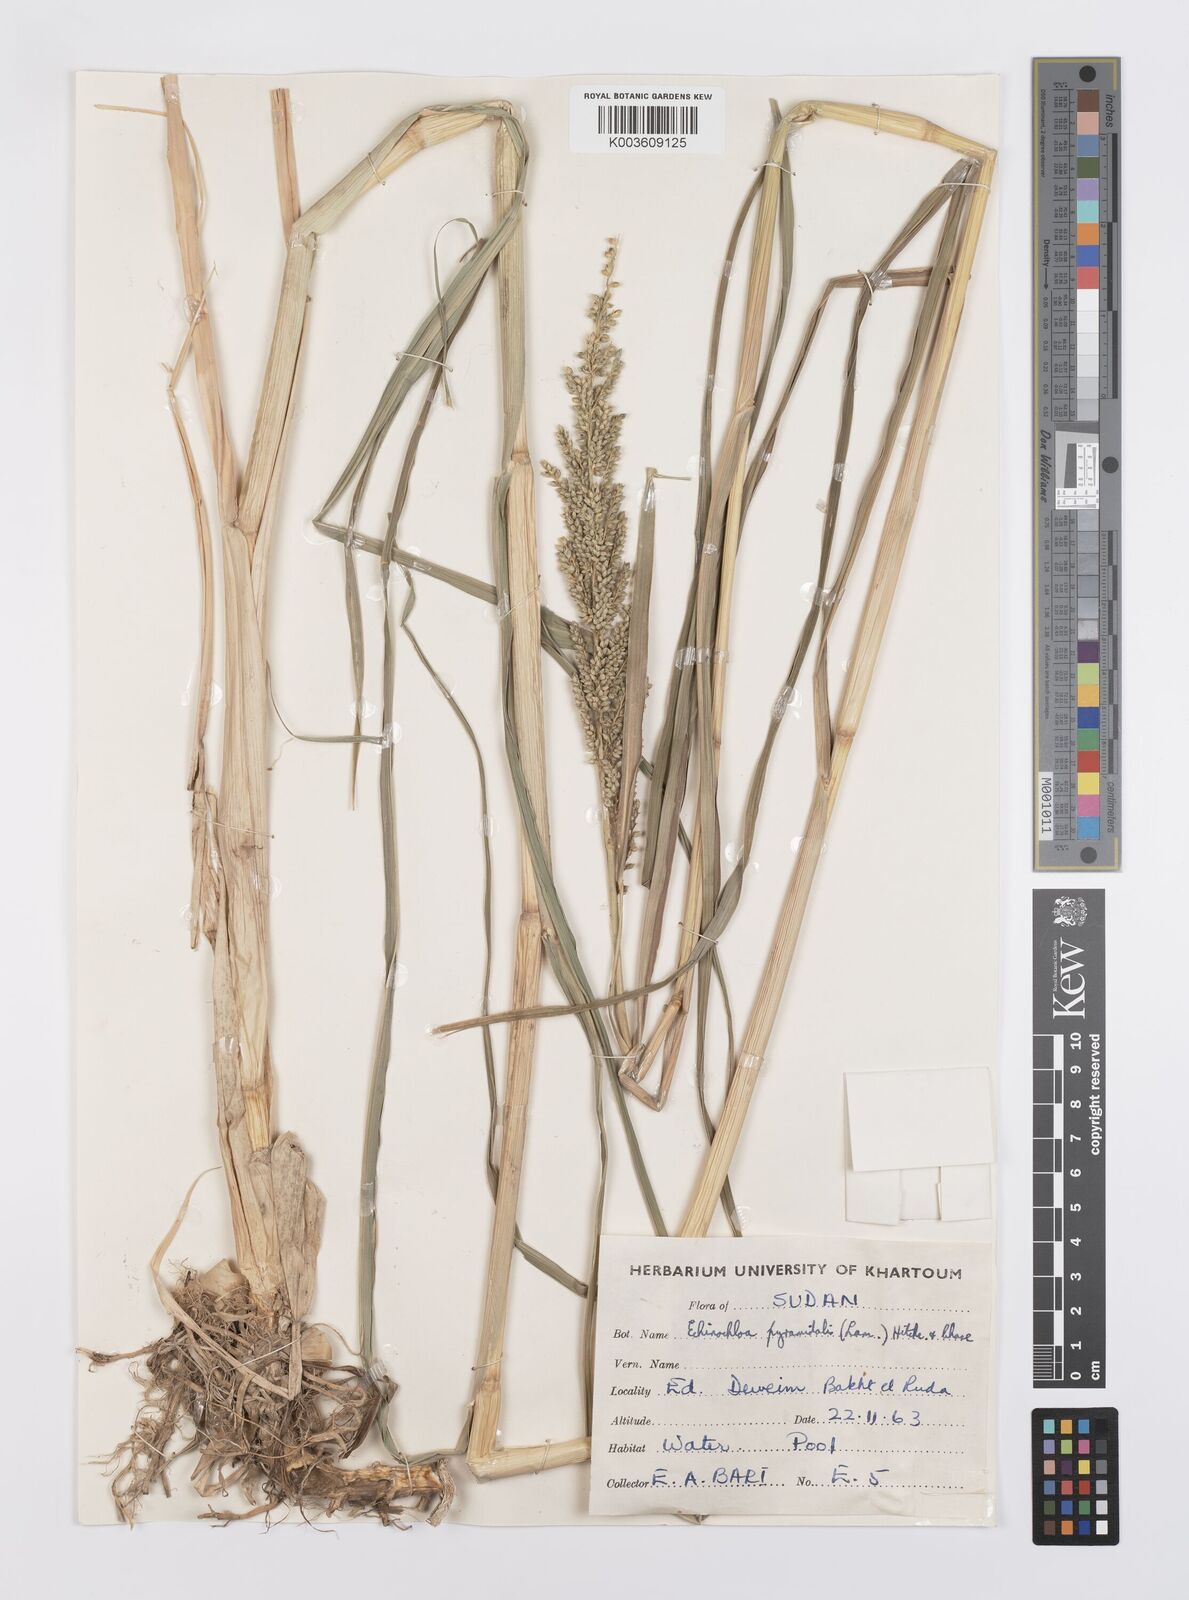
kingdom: Plantae
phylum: Tracheophyta
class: Liliopsida
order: Poales
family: Poaceae
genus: Echinochloa
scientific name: Echinochloa pyramidalis
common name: Antelope grass
